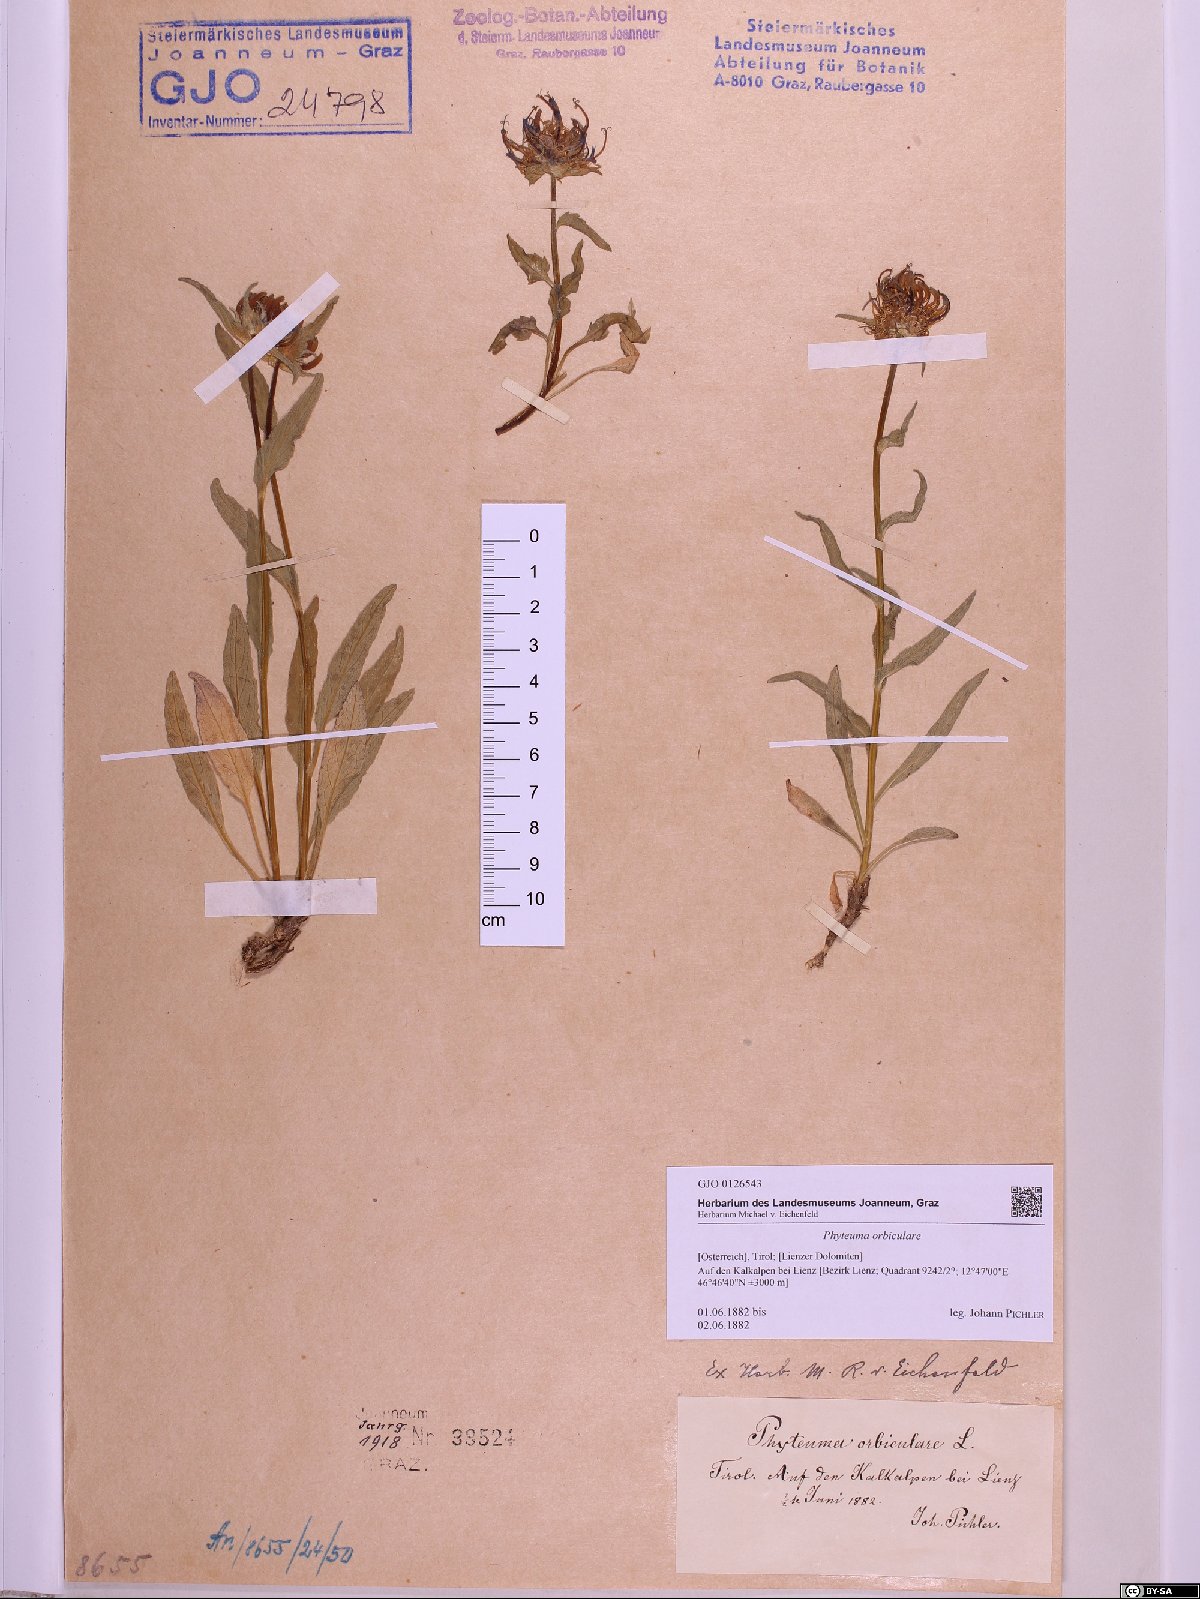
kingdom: Plantae
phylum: Tracheophyta
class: Magnoliopsida
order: Asterales
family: Campanulaceae
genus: Phyteuma
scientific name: Phyteuma orbiculare
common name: Round-headed rampion
